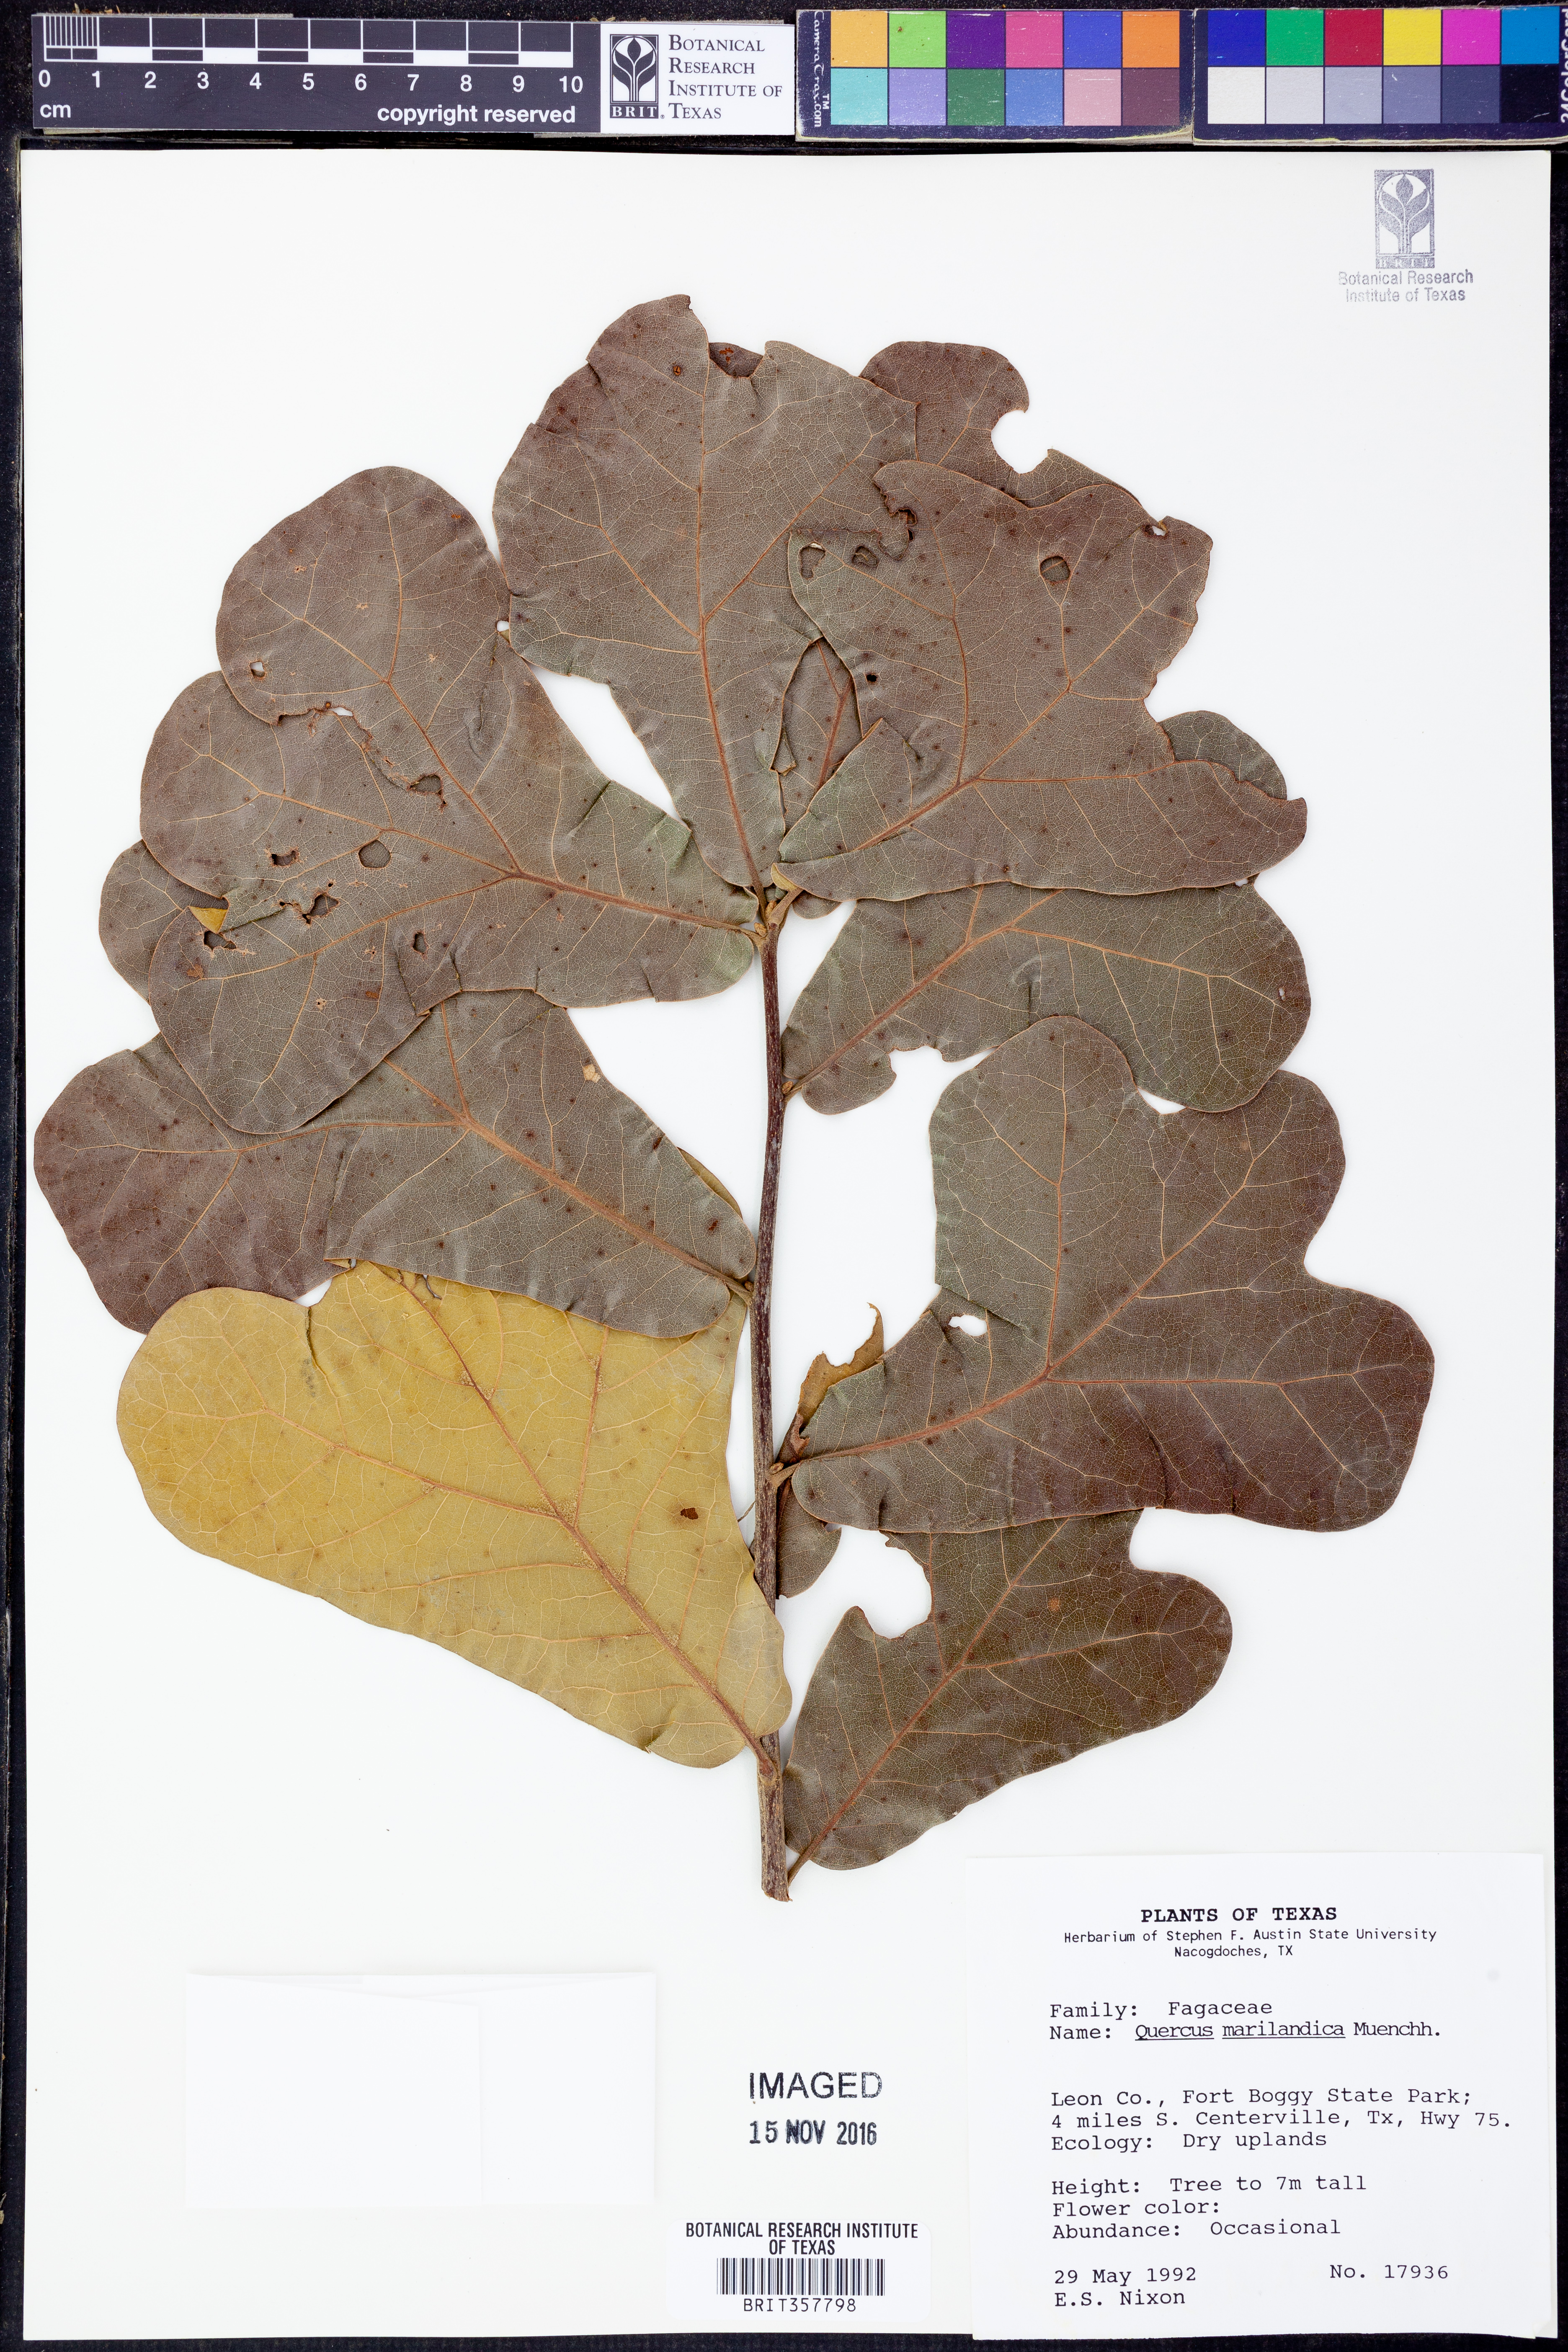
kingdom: Plantae
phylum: Tracheophyta
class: Magnoliopsida
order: Fagales
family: Fagaceae
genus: Quercus
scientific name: Quercus marilandica
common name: Blackjack oak
